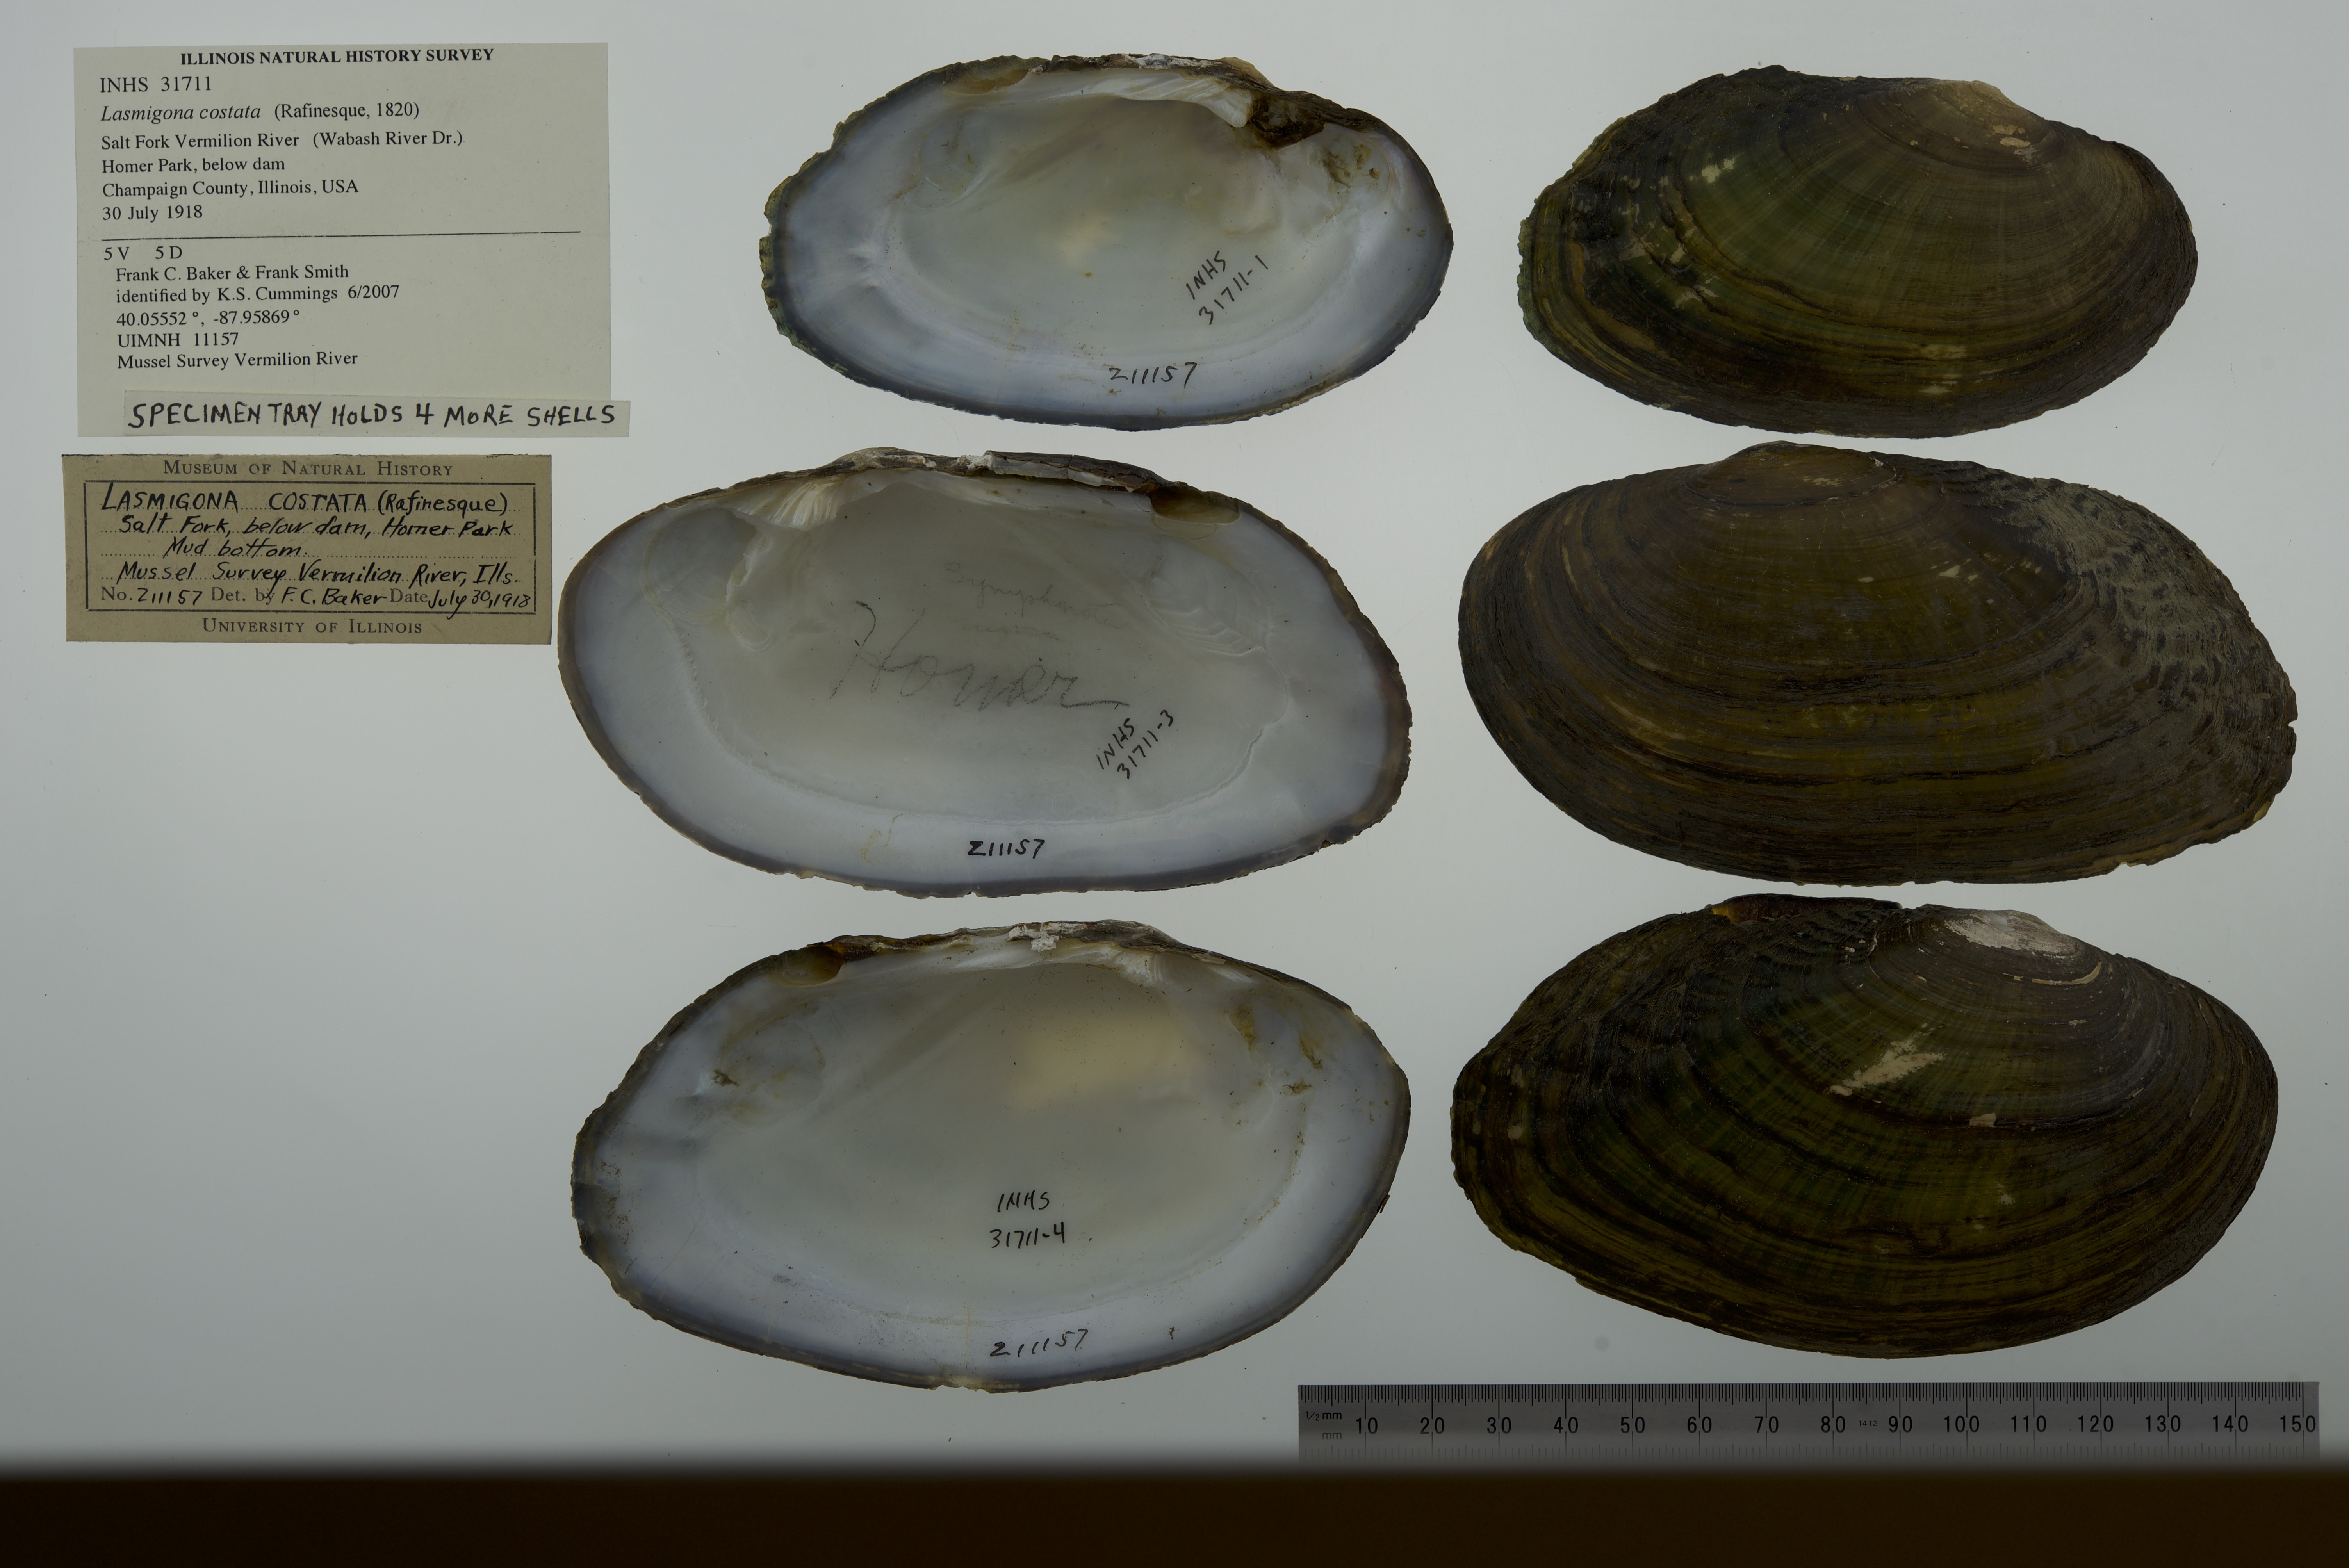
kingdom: Animalia
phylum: Mollusca
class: Bivalvia
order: Unionida
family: Unionidae
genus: Lasmigona
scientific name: Lasmigona costata
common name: Flutedshell
